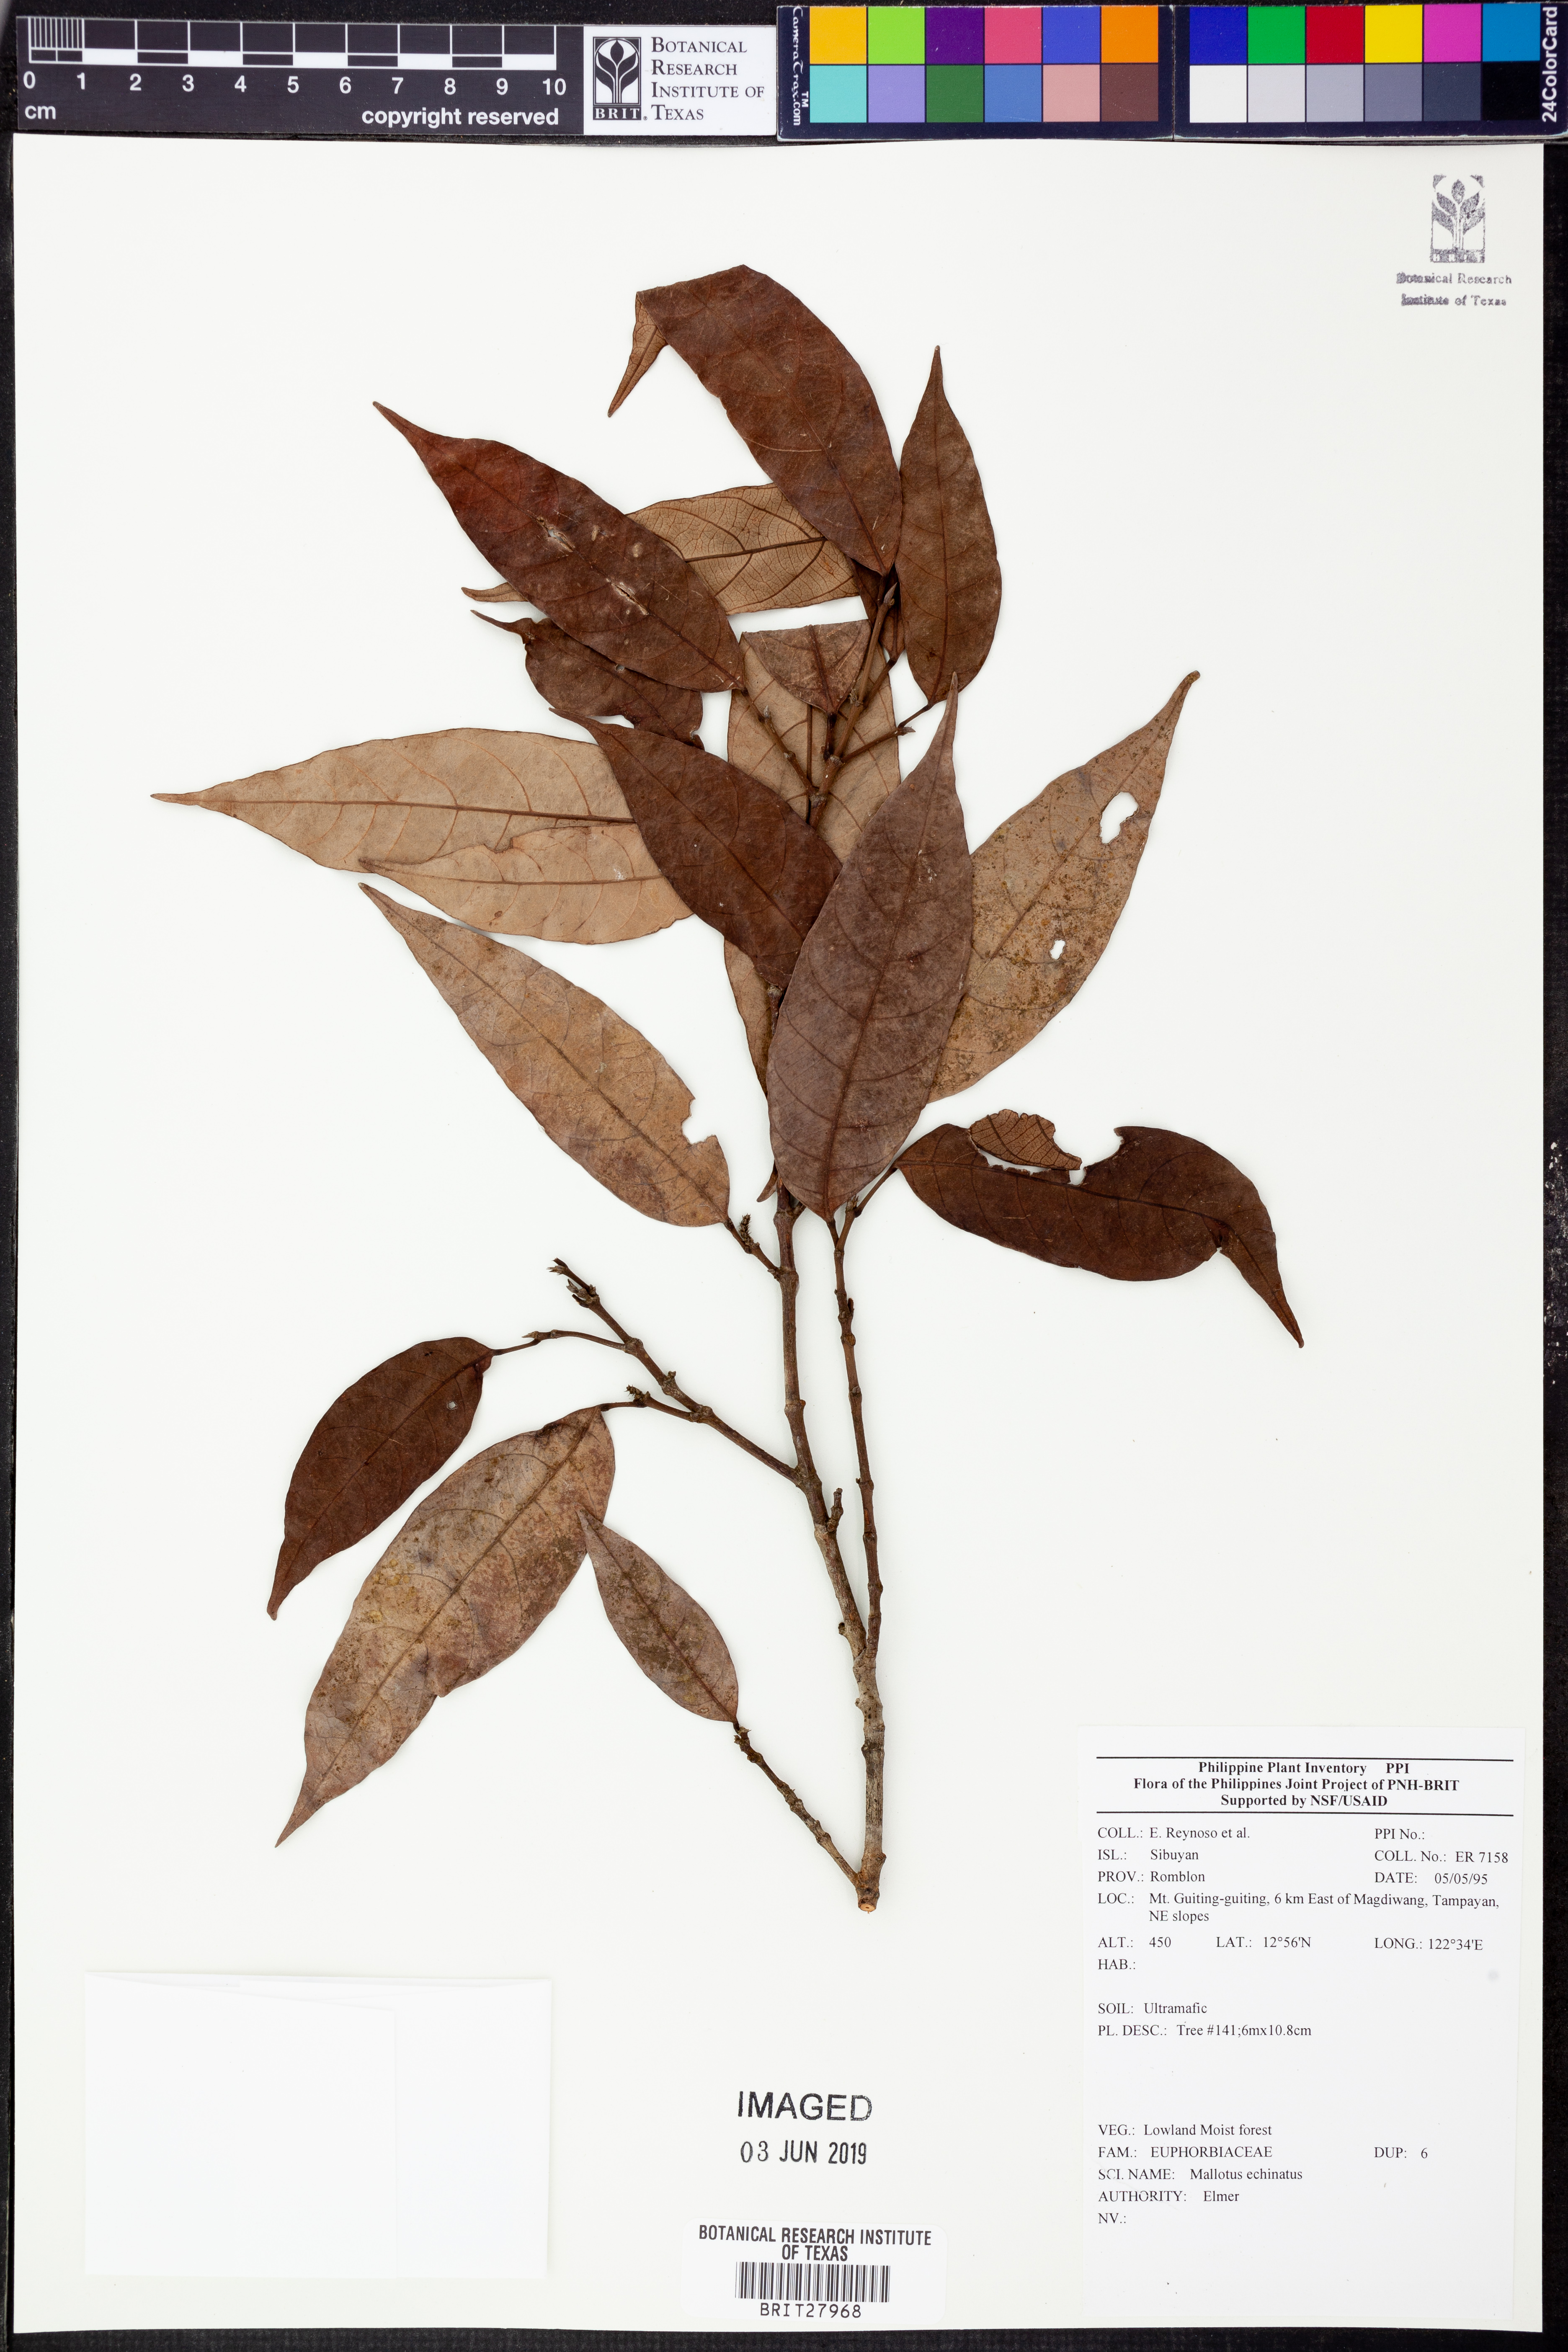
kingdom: Plantae
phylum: Tracheophyta
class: Magnoliopsida
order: Malpighiales
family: Euphorbiaceae
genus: Hancea
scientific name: Hancea penangensis
